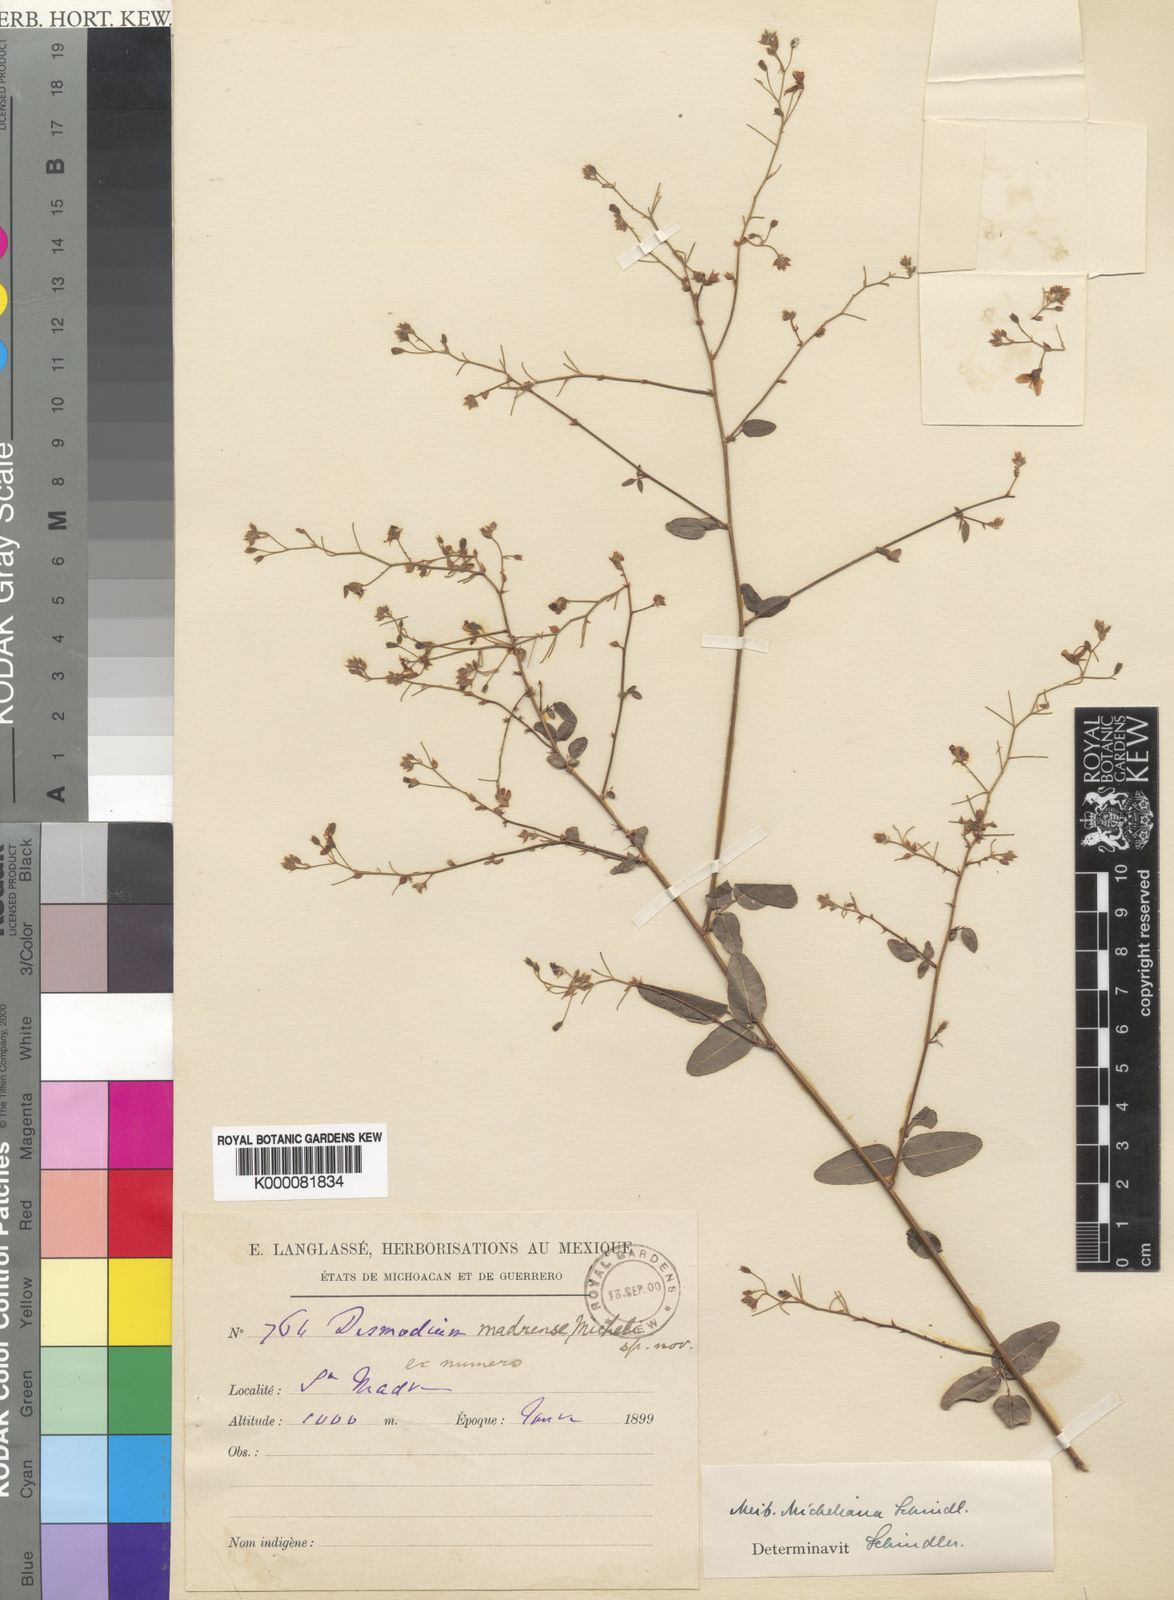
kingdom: Plantae
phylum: Tracheophyta
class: Magnoliopsida
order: Fabales
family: Fabaceae
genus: Desmodium
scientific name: Desmodium michelianum
